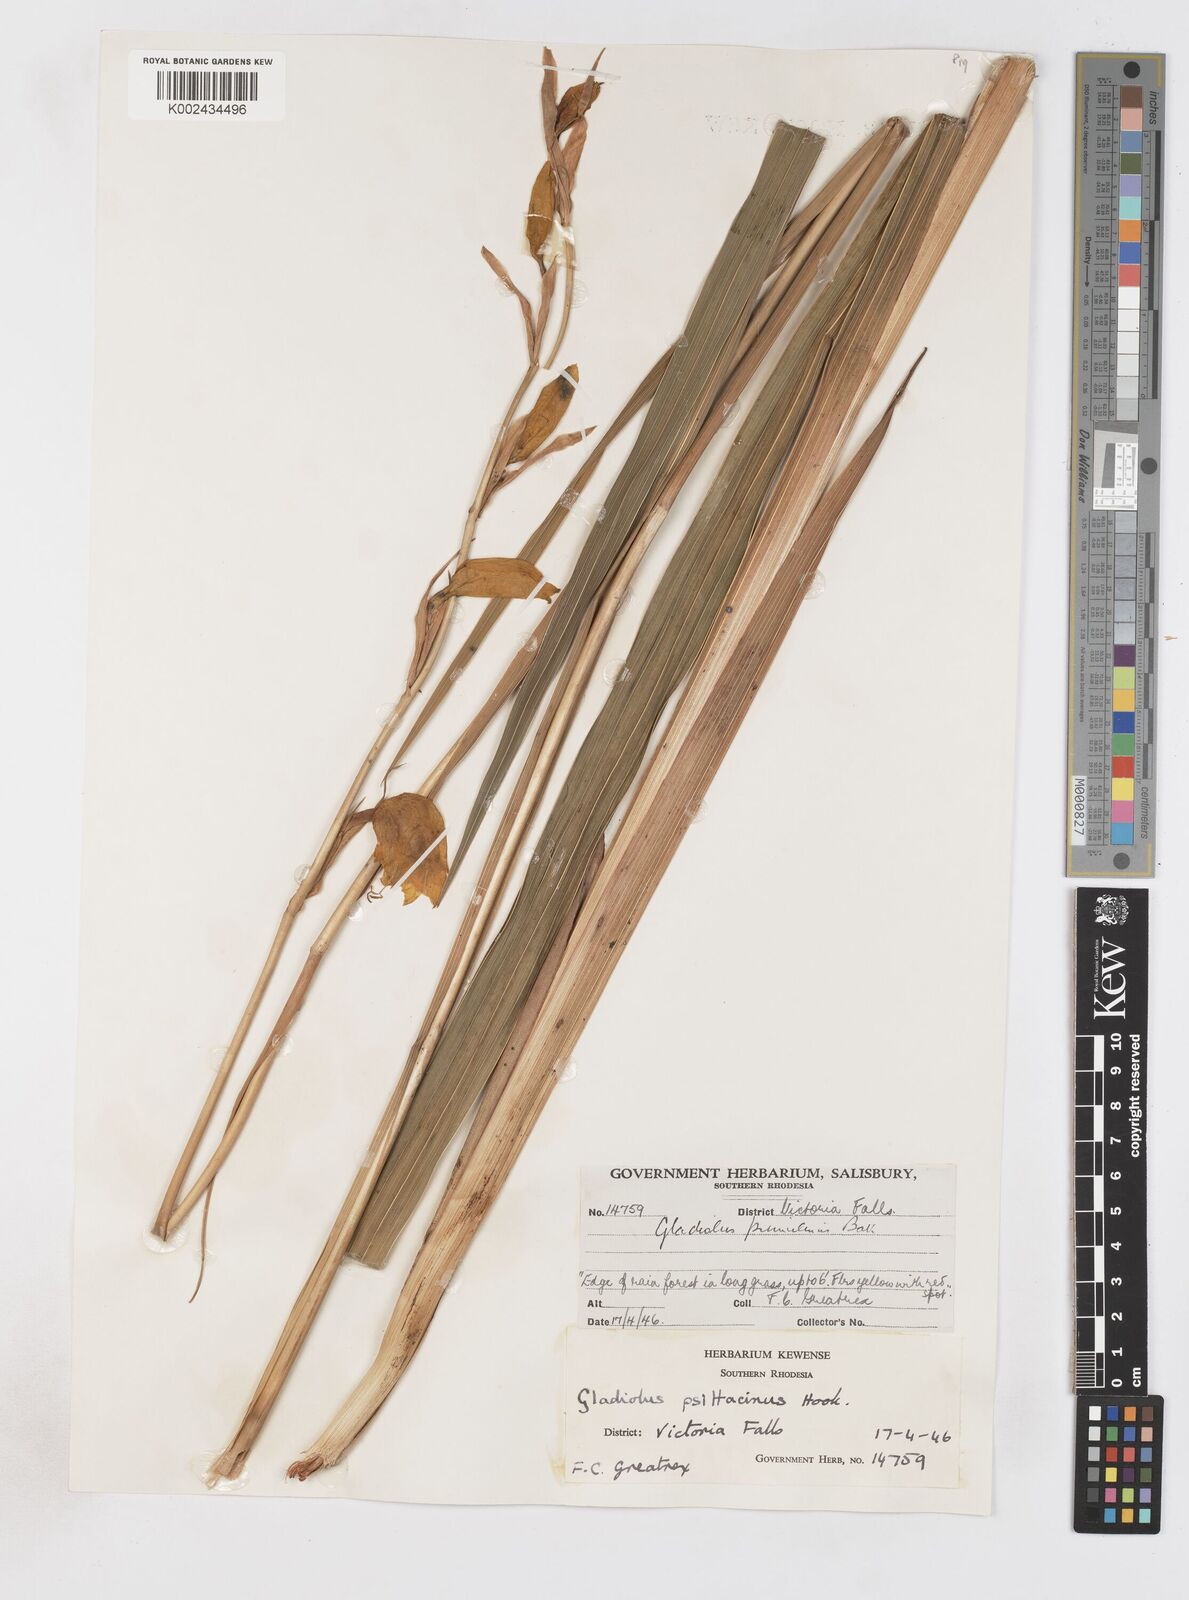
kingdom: Plantae
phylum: Tracheophyta
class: Liliopsida
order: Asparagales
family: Iridaceae
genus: Gladiolus
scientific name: Gladiolus dalenii
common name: Cornflag
